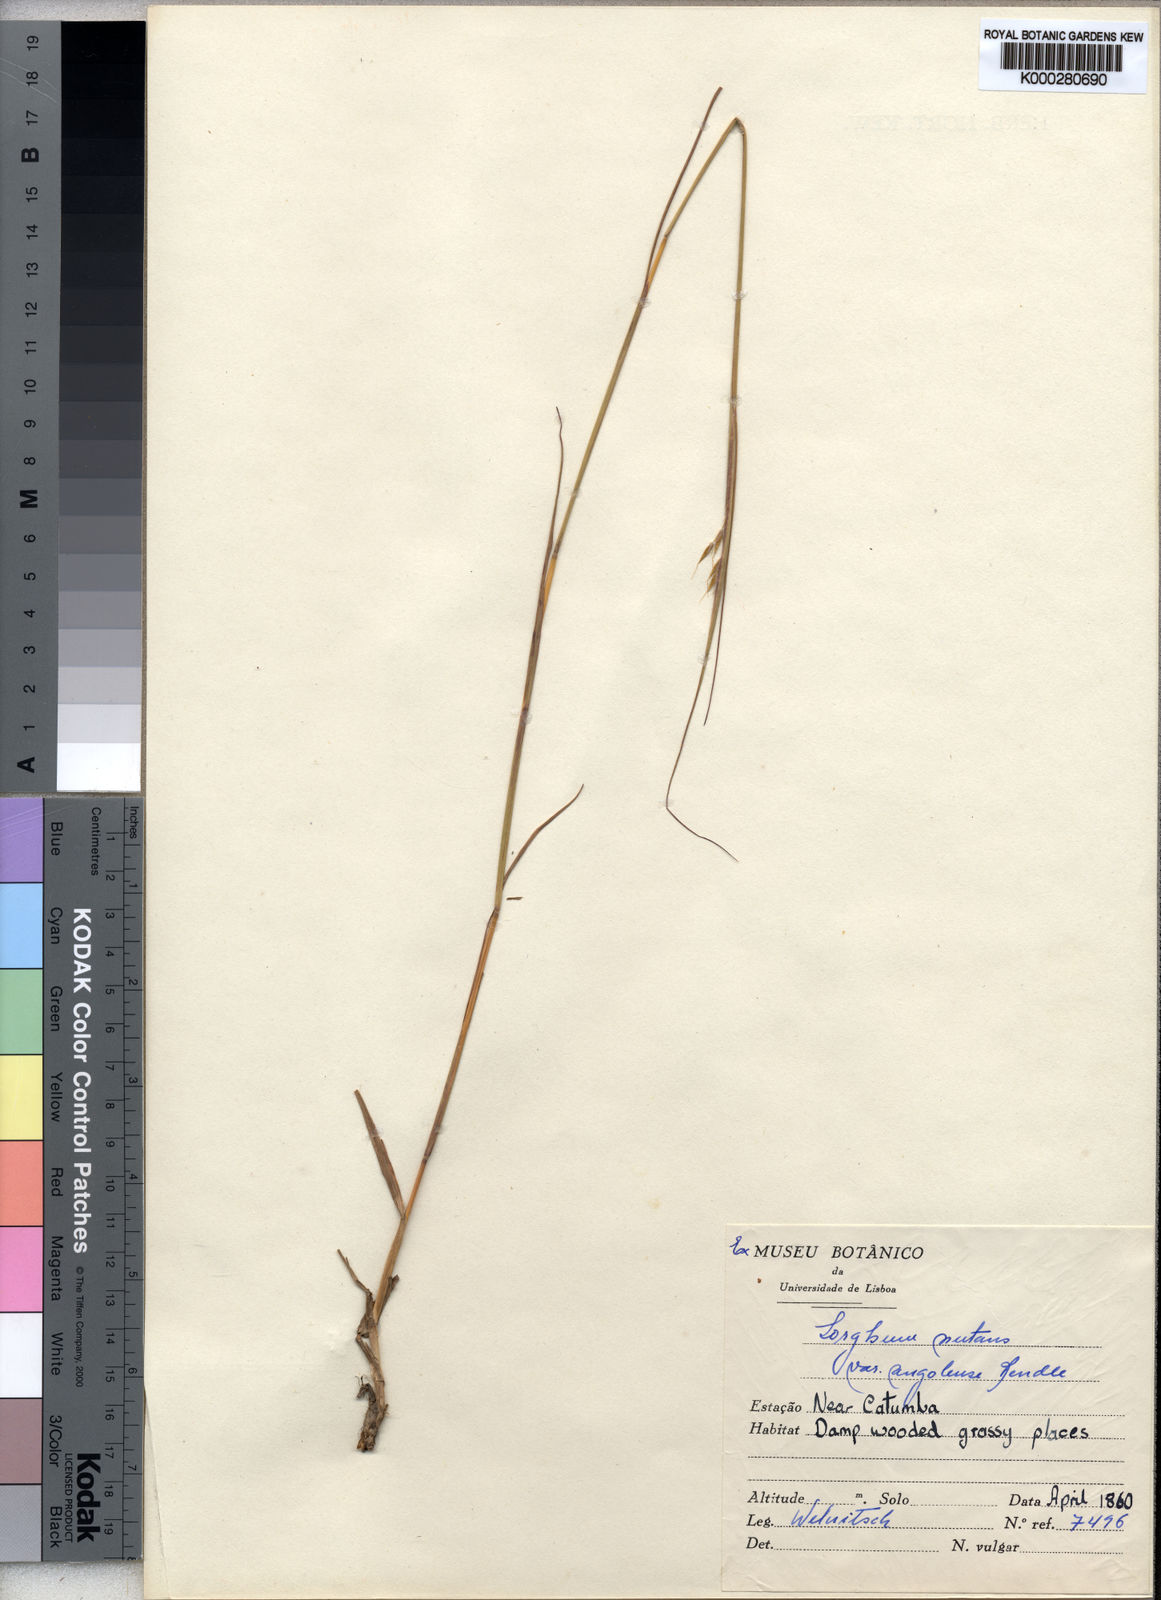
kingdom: Plantae
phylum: Tracheophyta
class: Liliopsida
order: Poales
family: Poaceae
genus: Sorghastrum
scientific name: Sorghastrum nudipes
